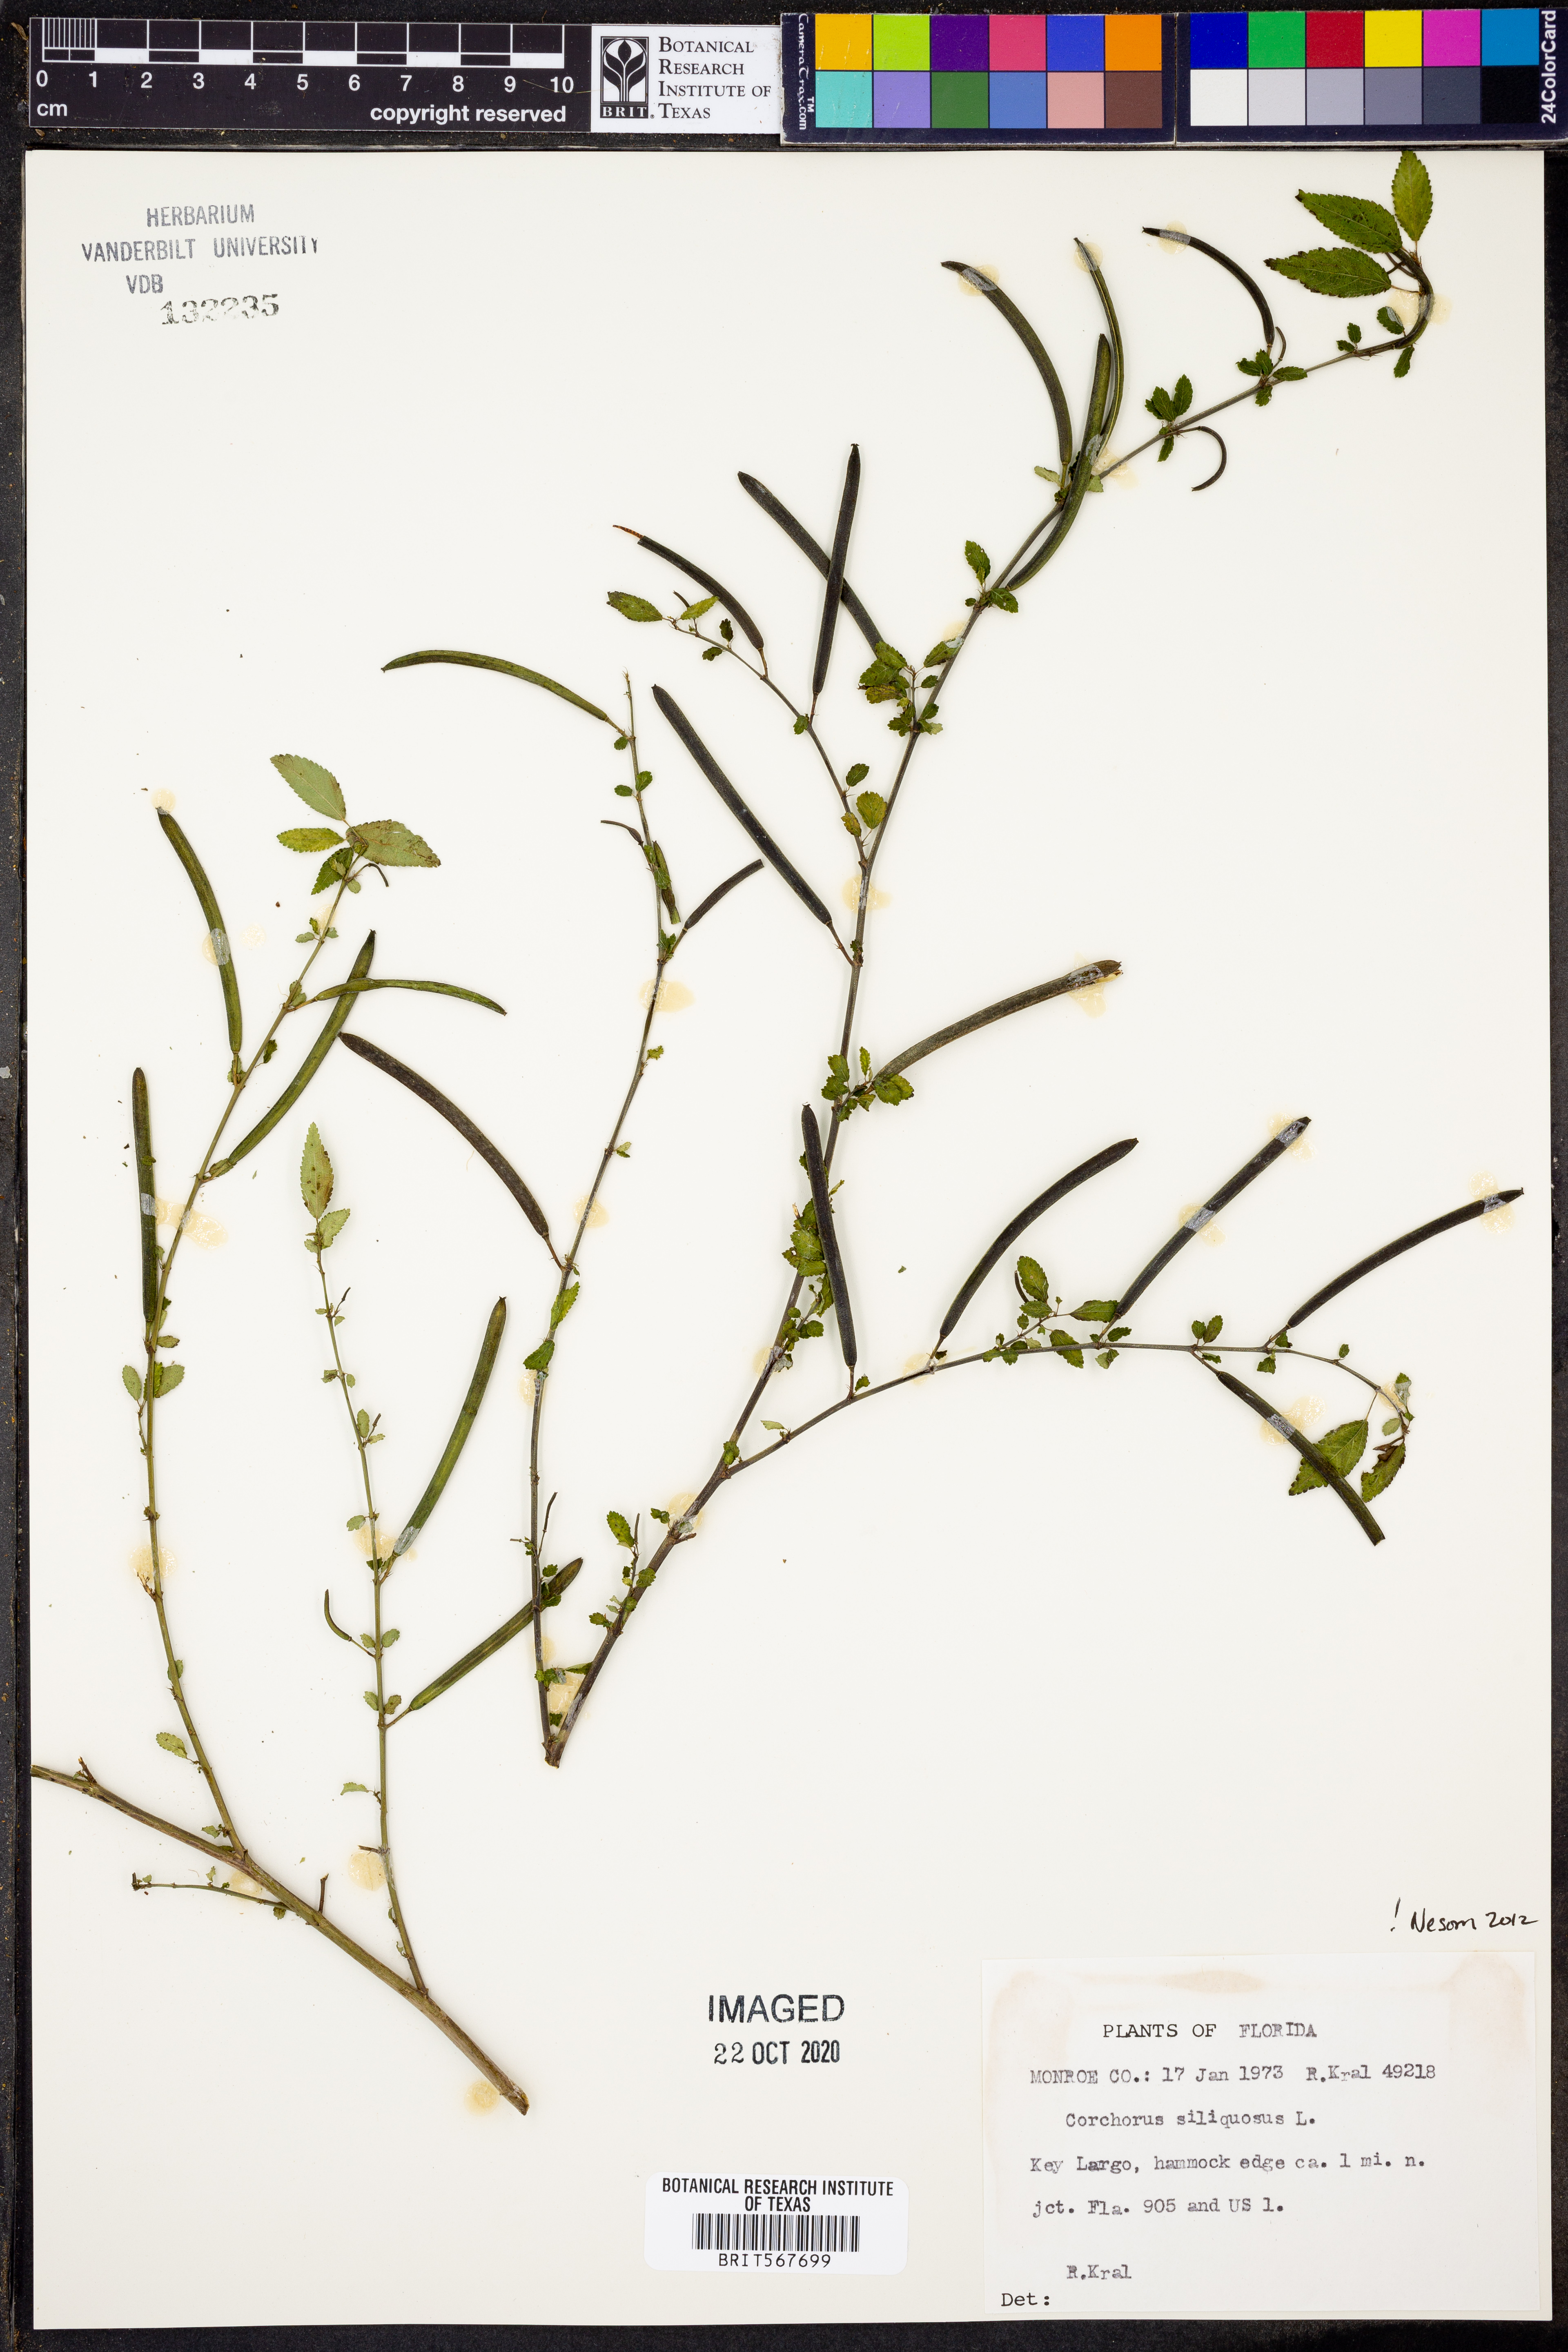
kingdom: Plantae
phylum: Tracheophyta
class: Magnoliopsida
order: Malvales
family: Malvaceae
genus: Corchorus
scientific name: Corchorus hirtus
